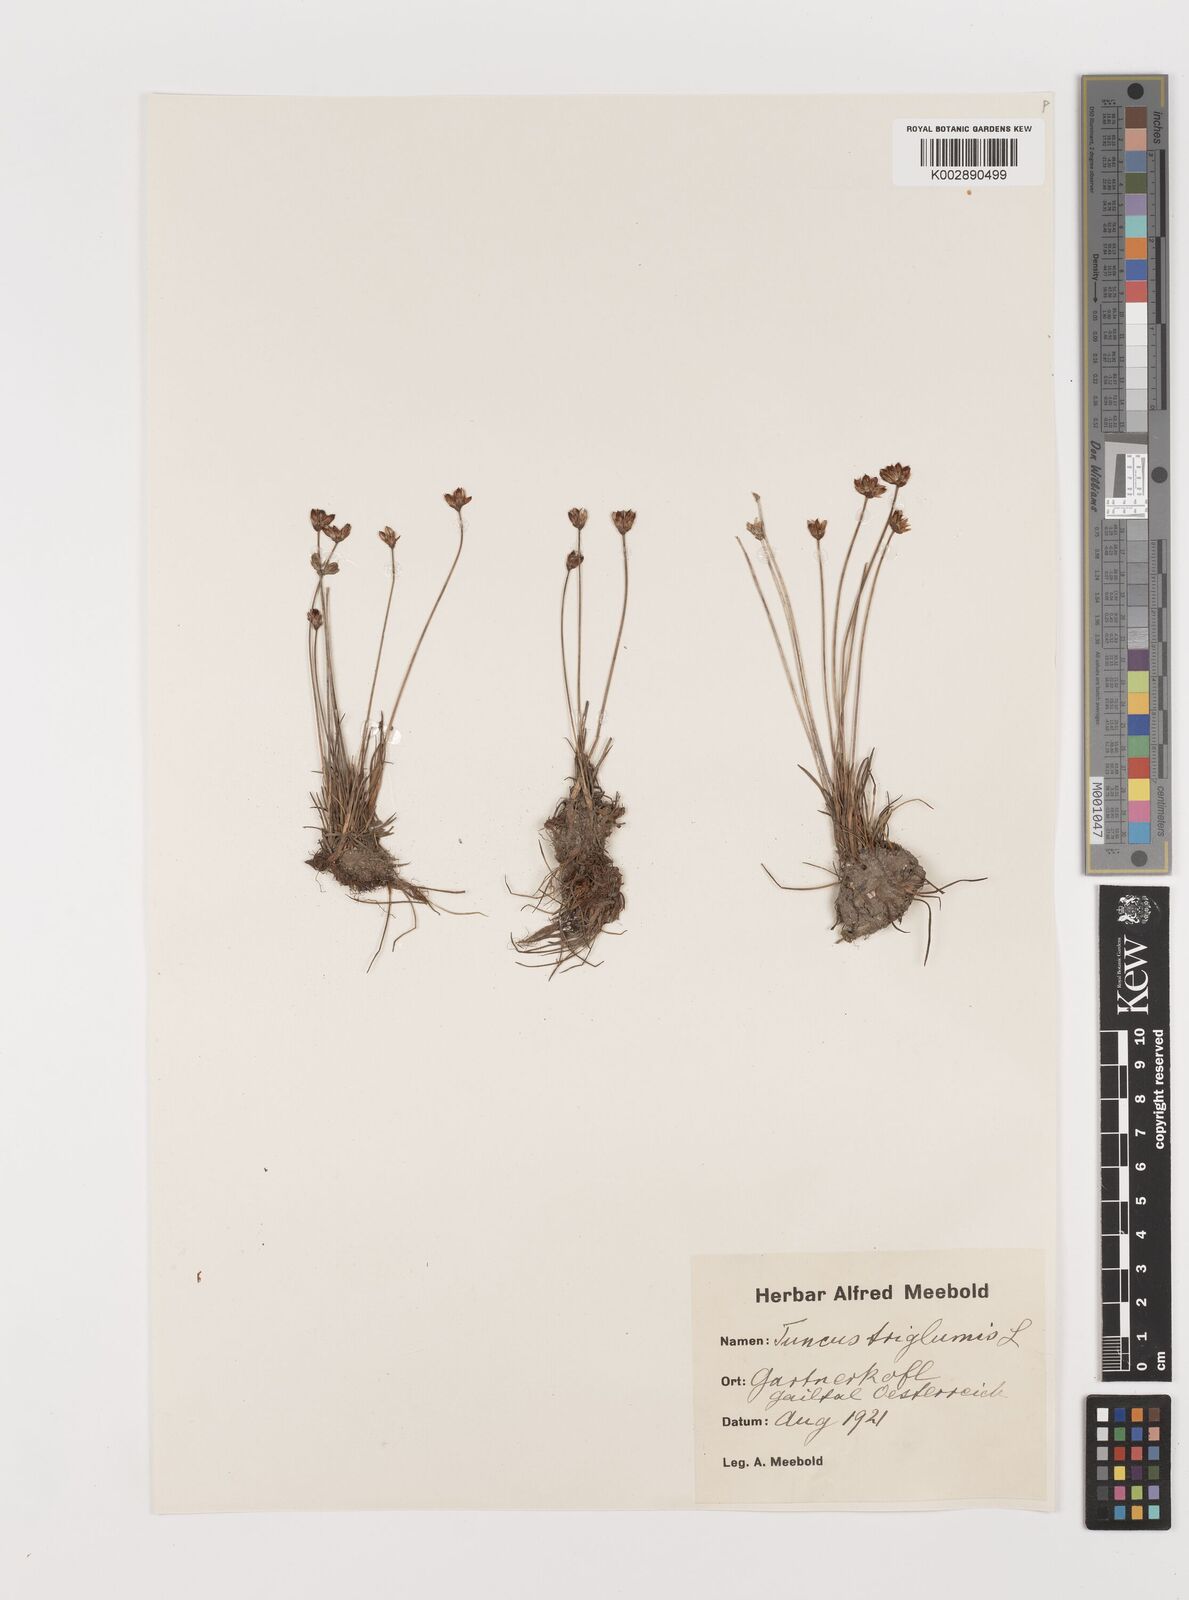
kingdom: Plantae
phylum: Tracheophyta
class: Liliopsida
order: Poales
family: Juncaceae
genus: Juncus
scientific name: Juncus triglumis
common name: Three-flowered rush
